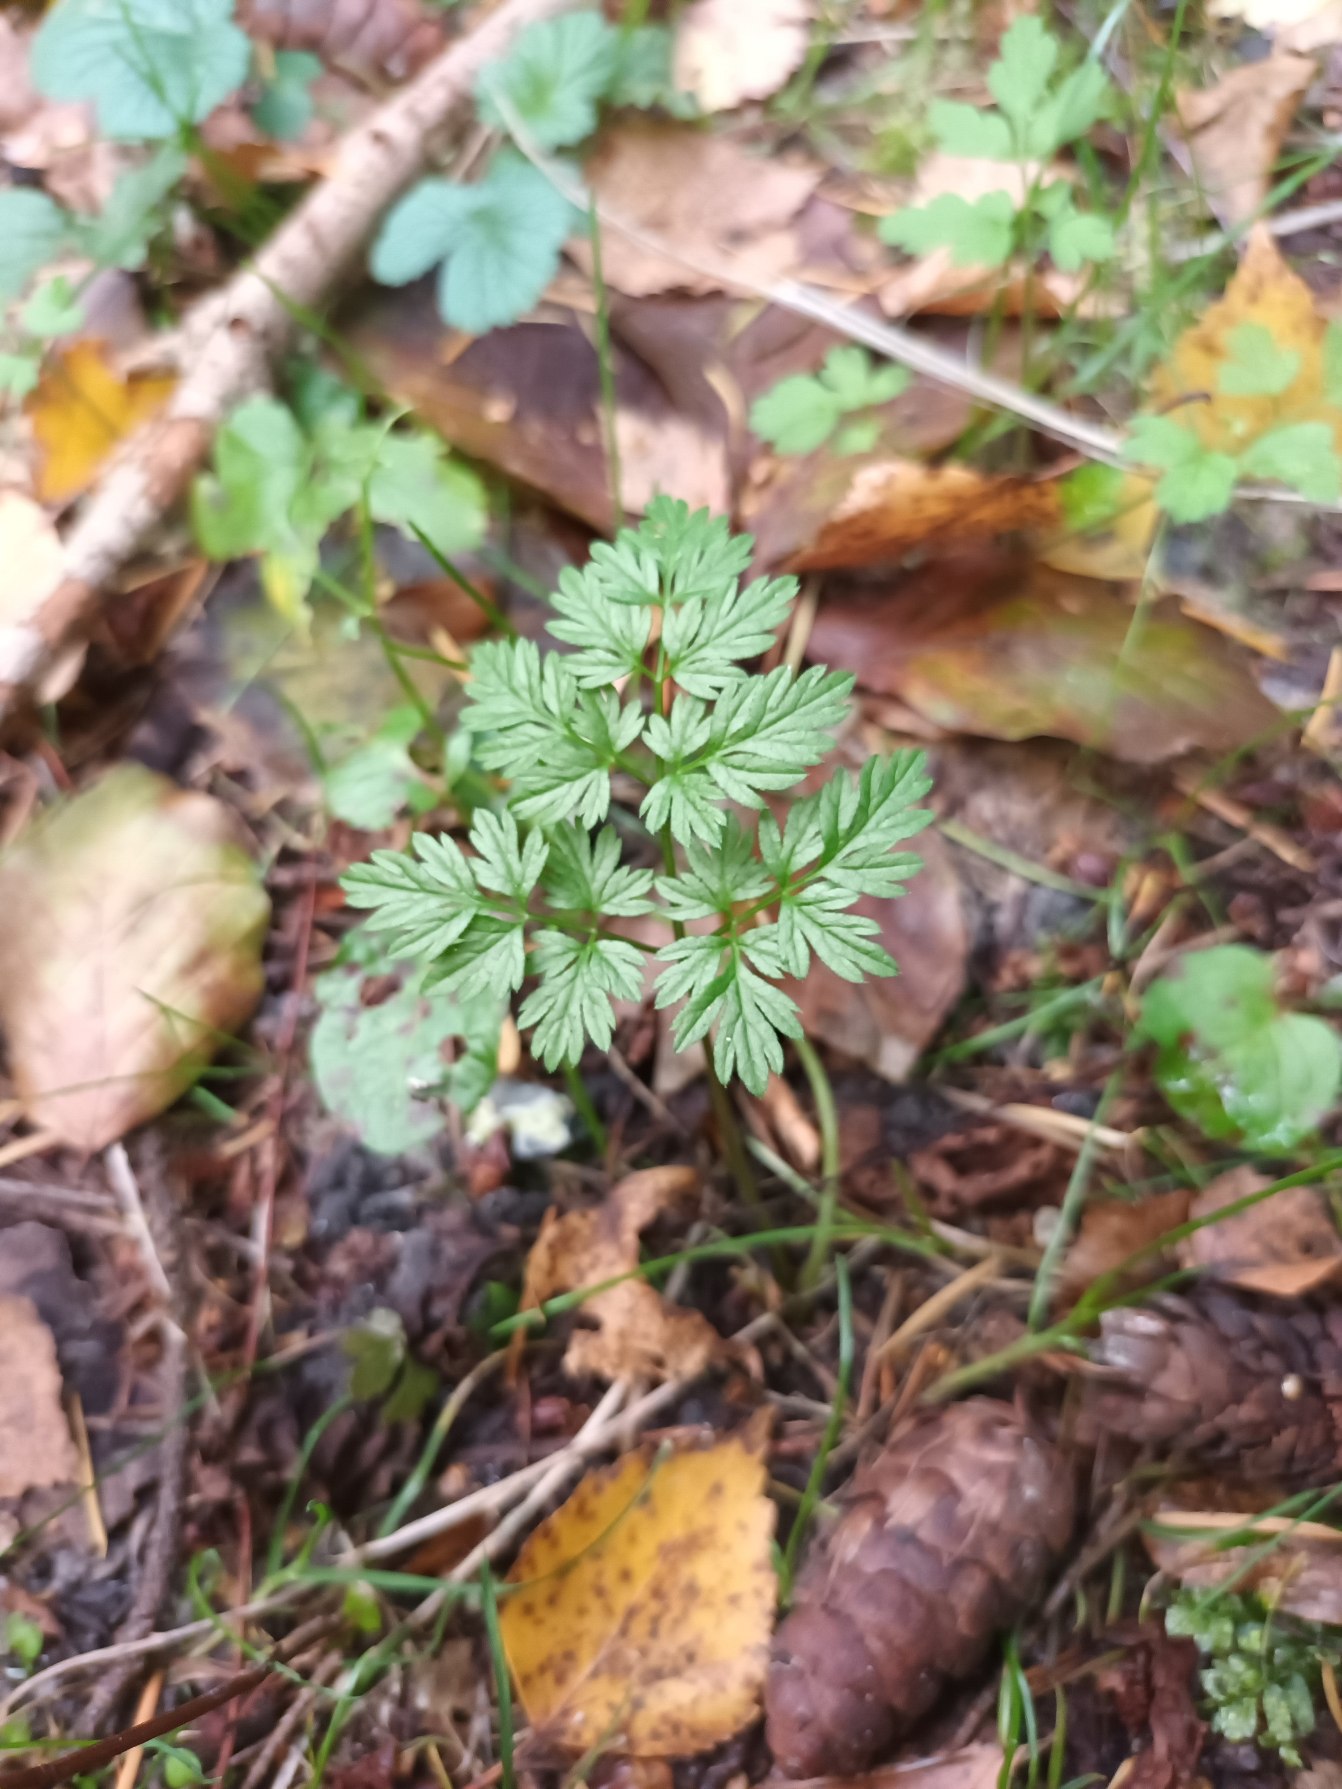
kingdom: Plantae
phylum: Tracheophyta
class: Magnoliopsida
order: Apiales
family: Apiaceae
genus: Anthriscus
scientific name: Anthriscus sylvestris
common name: Vild kørvel
